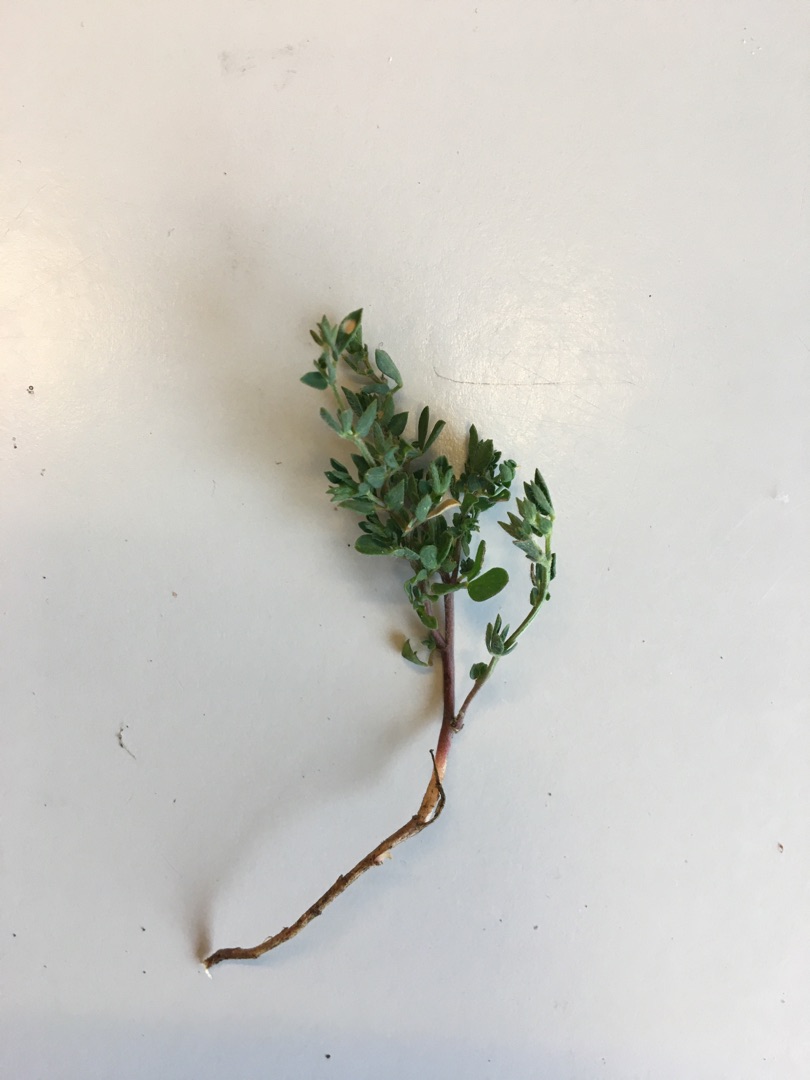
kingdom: Plantae
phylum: Tracheophyta
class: Magnoliopsida
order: Fabales
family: Fabaceae
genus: Lotus
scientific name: Lotus corniculatus
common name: Almindelig kællingetand
